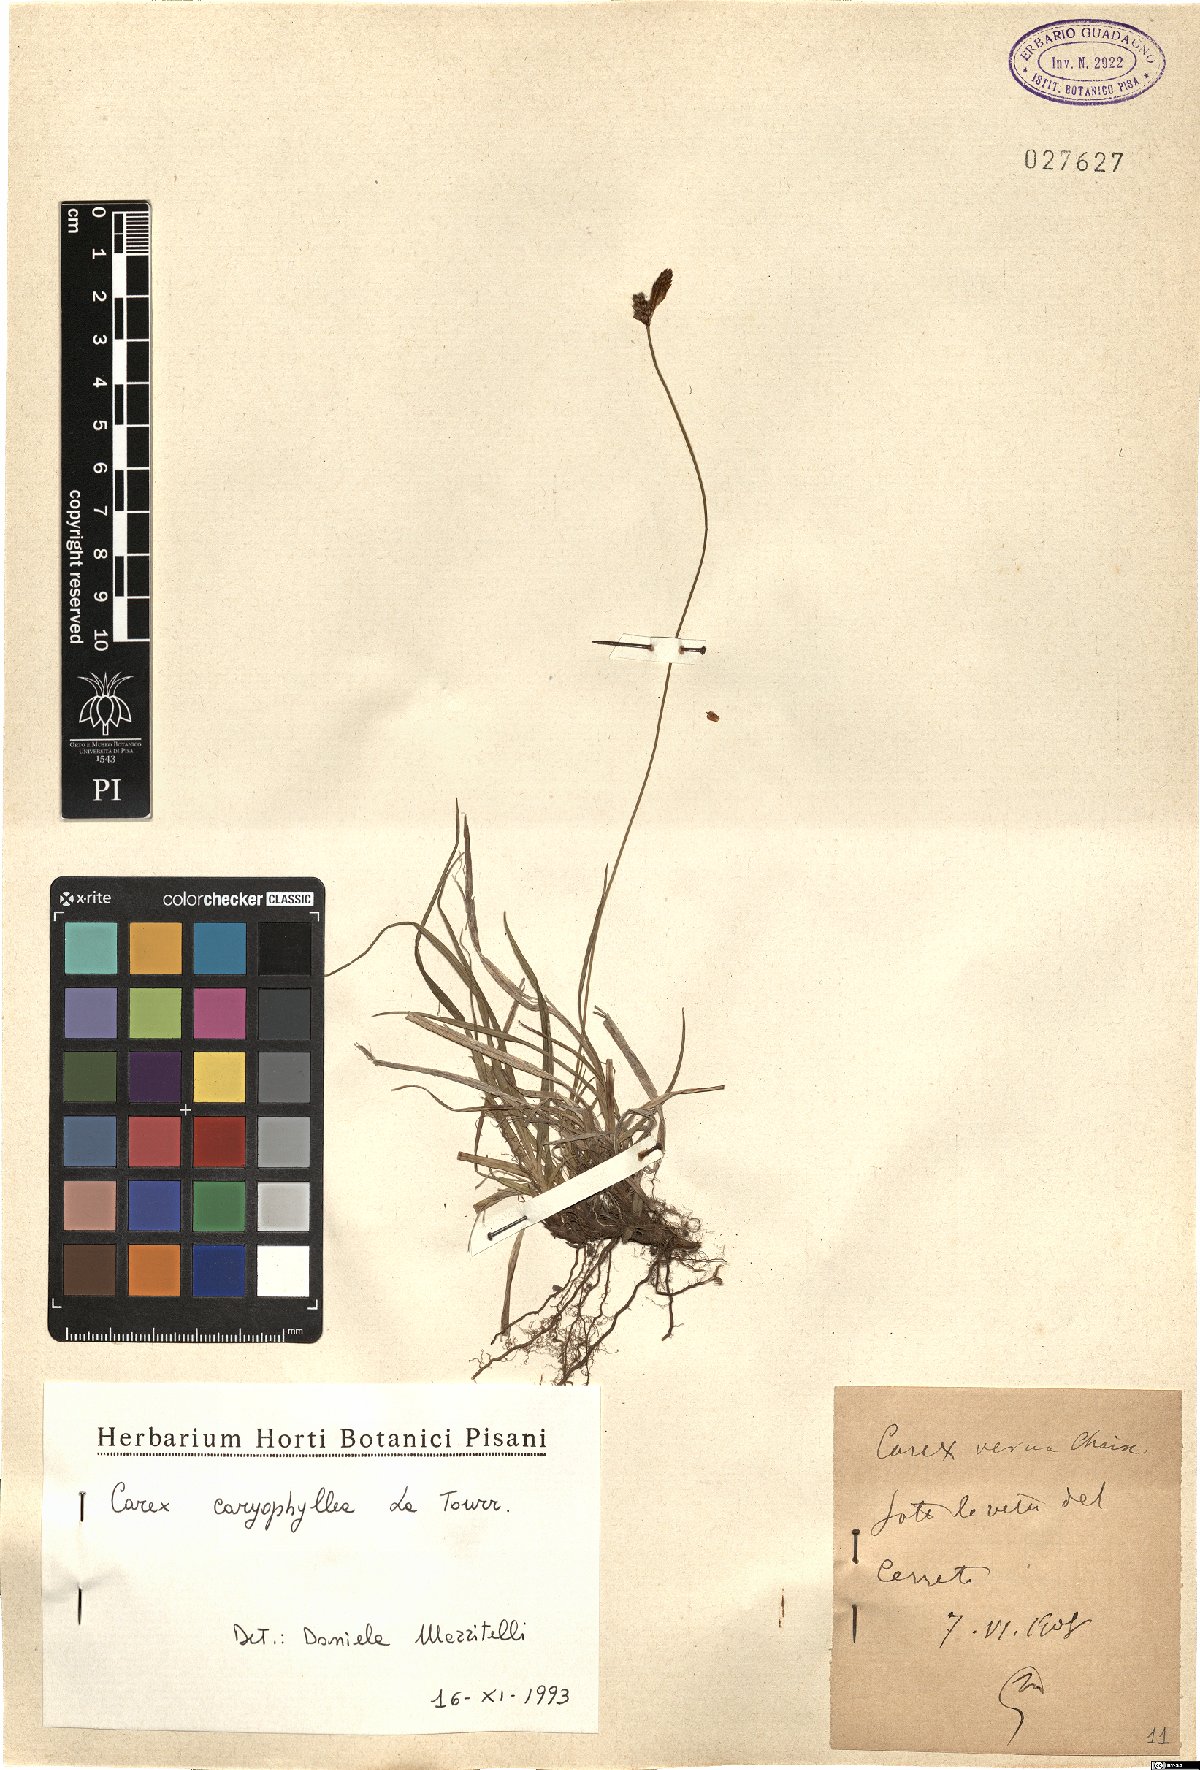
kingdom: Plantae
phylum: Tracheophyta
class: Liliopsida
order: Poales
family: Cyperaceae
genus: Carex
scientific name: Carex caryophyllea
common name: Spring sedge
